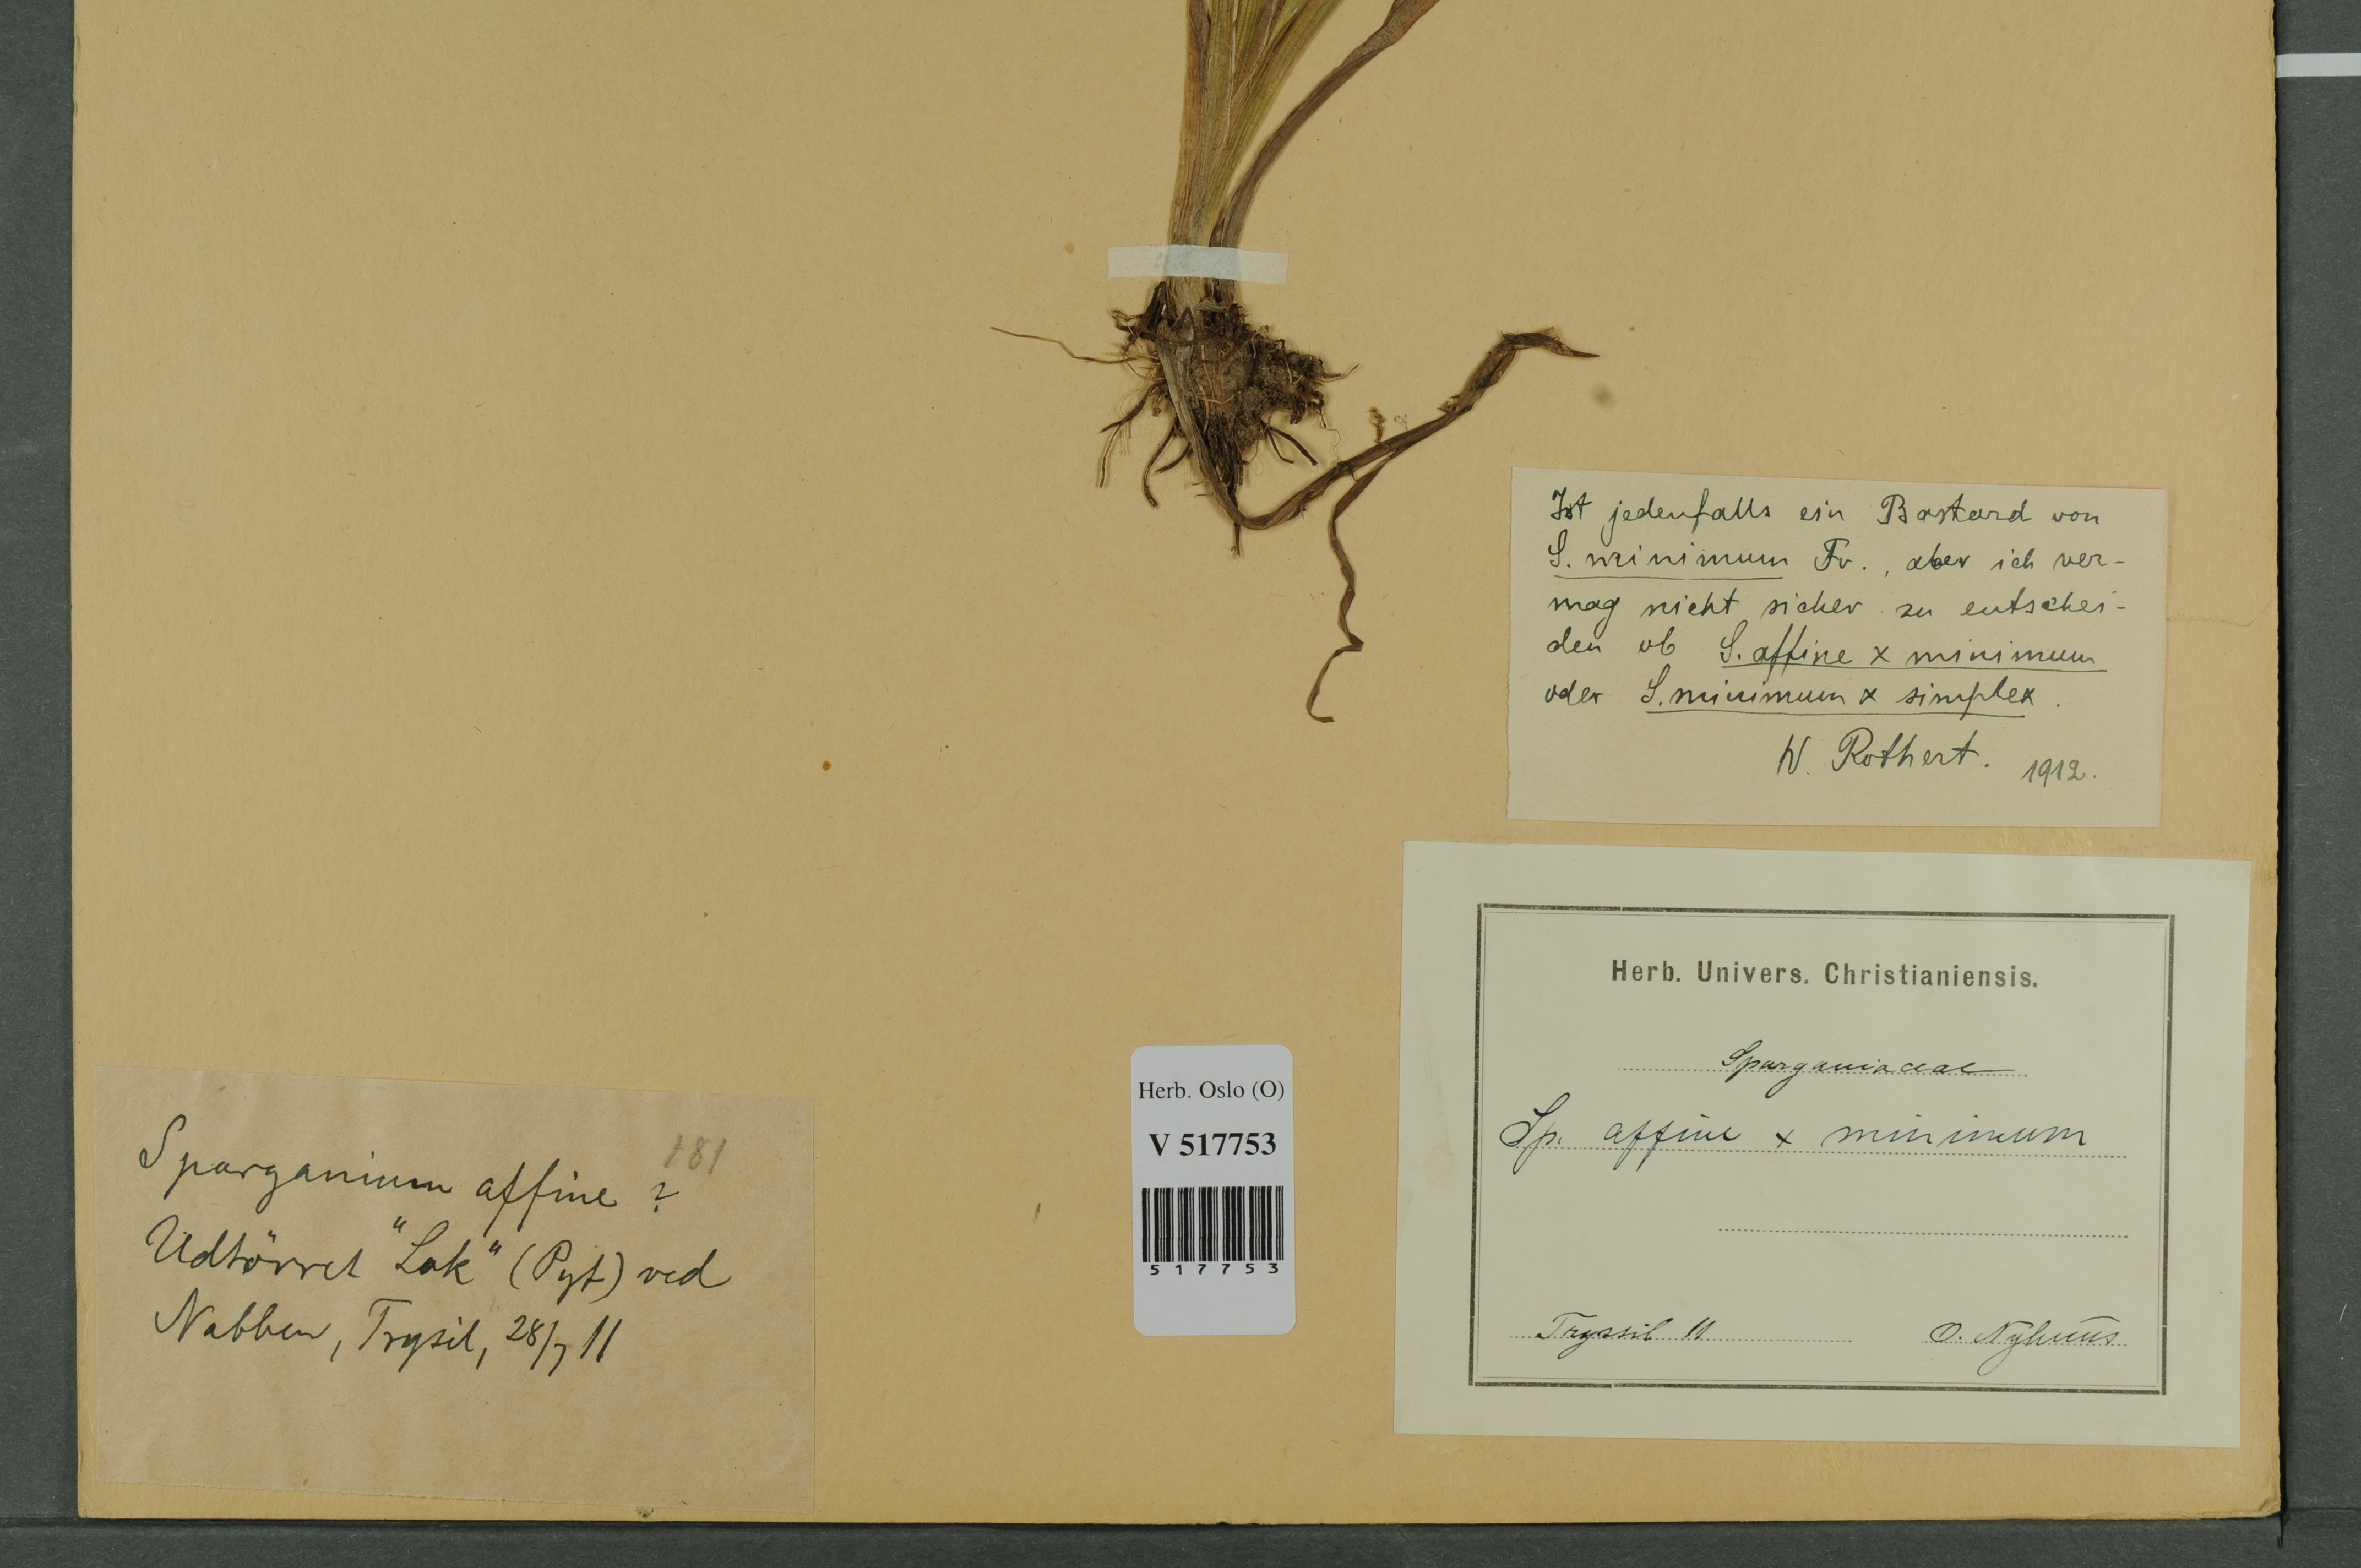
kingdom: Plantae
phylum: Tracheophyta
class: Liliopsida
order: Poales
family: Typhaceae
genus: Sparganium
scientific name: Sparganium
